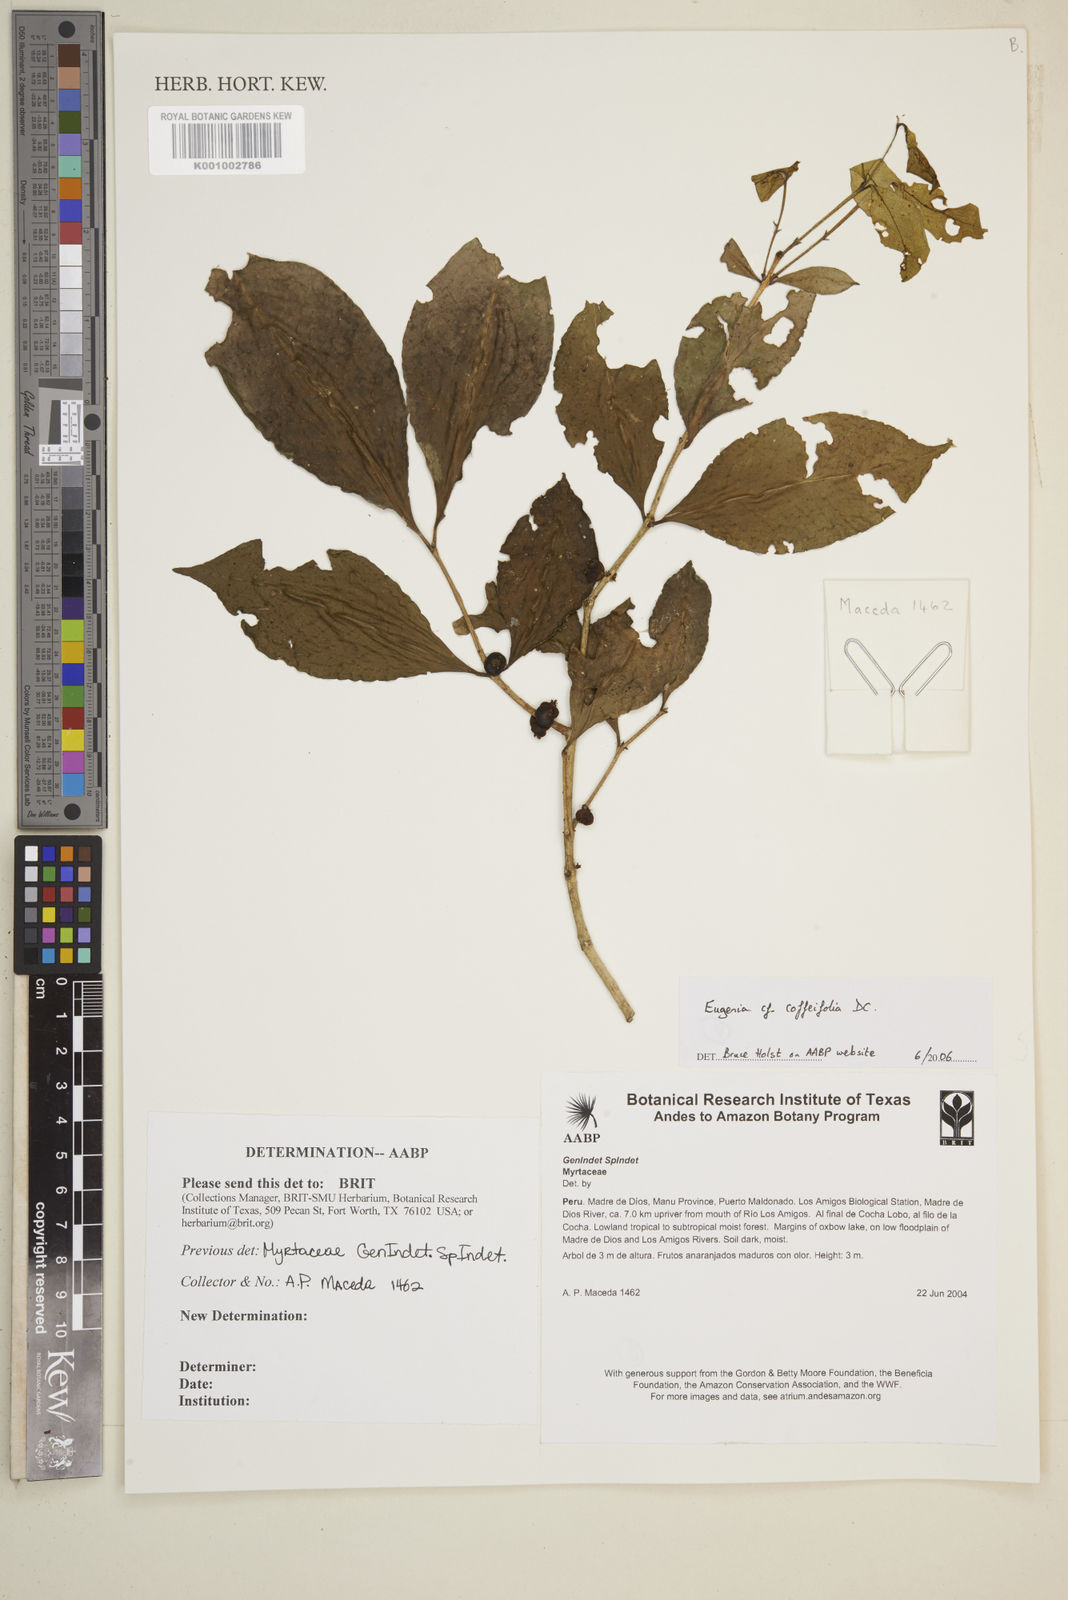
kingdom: Plantae
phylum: Tracheophyta
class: Magnoliopsida
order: Myrtales
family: Myrtaceae
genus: Eugenia
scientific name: Eugenia coffeifolia
